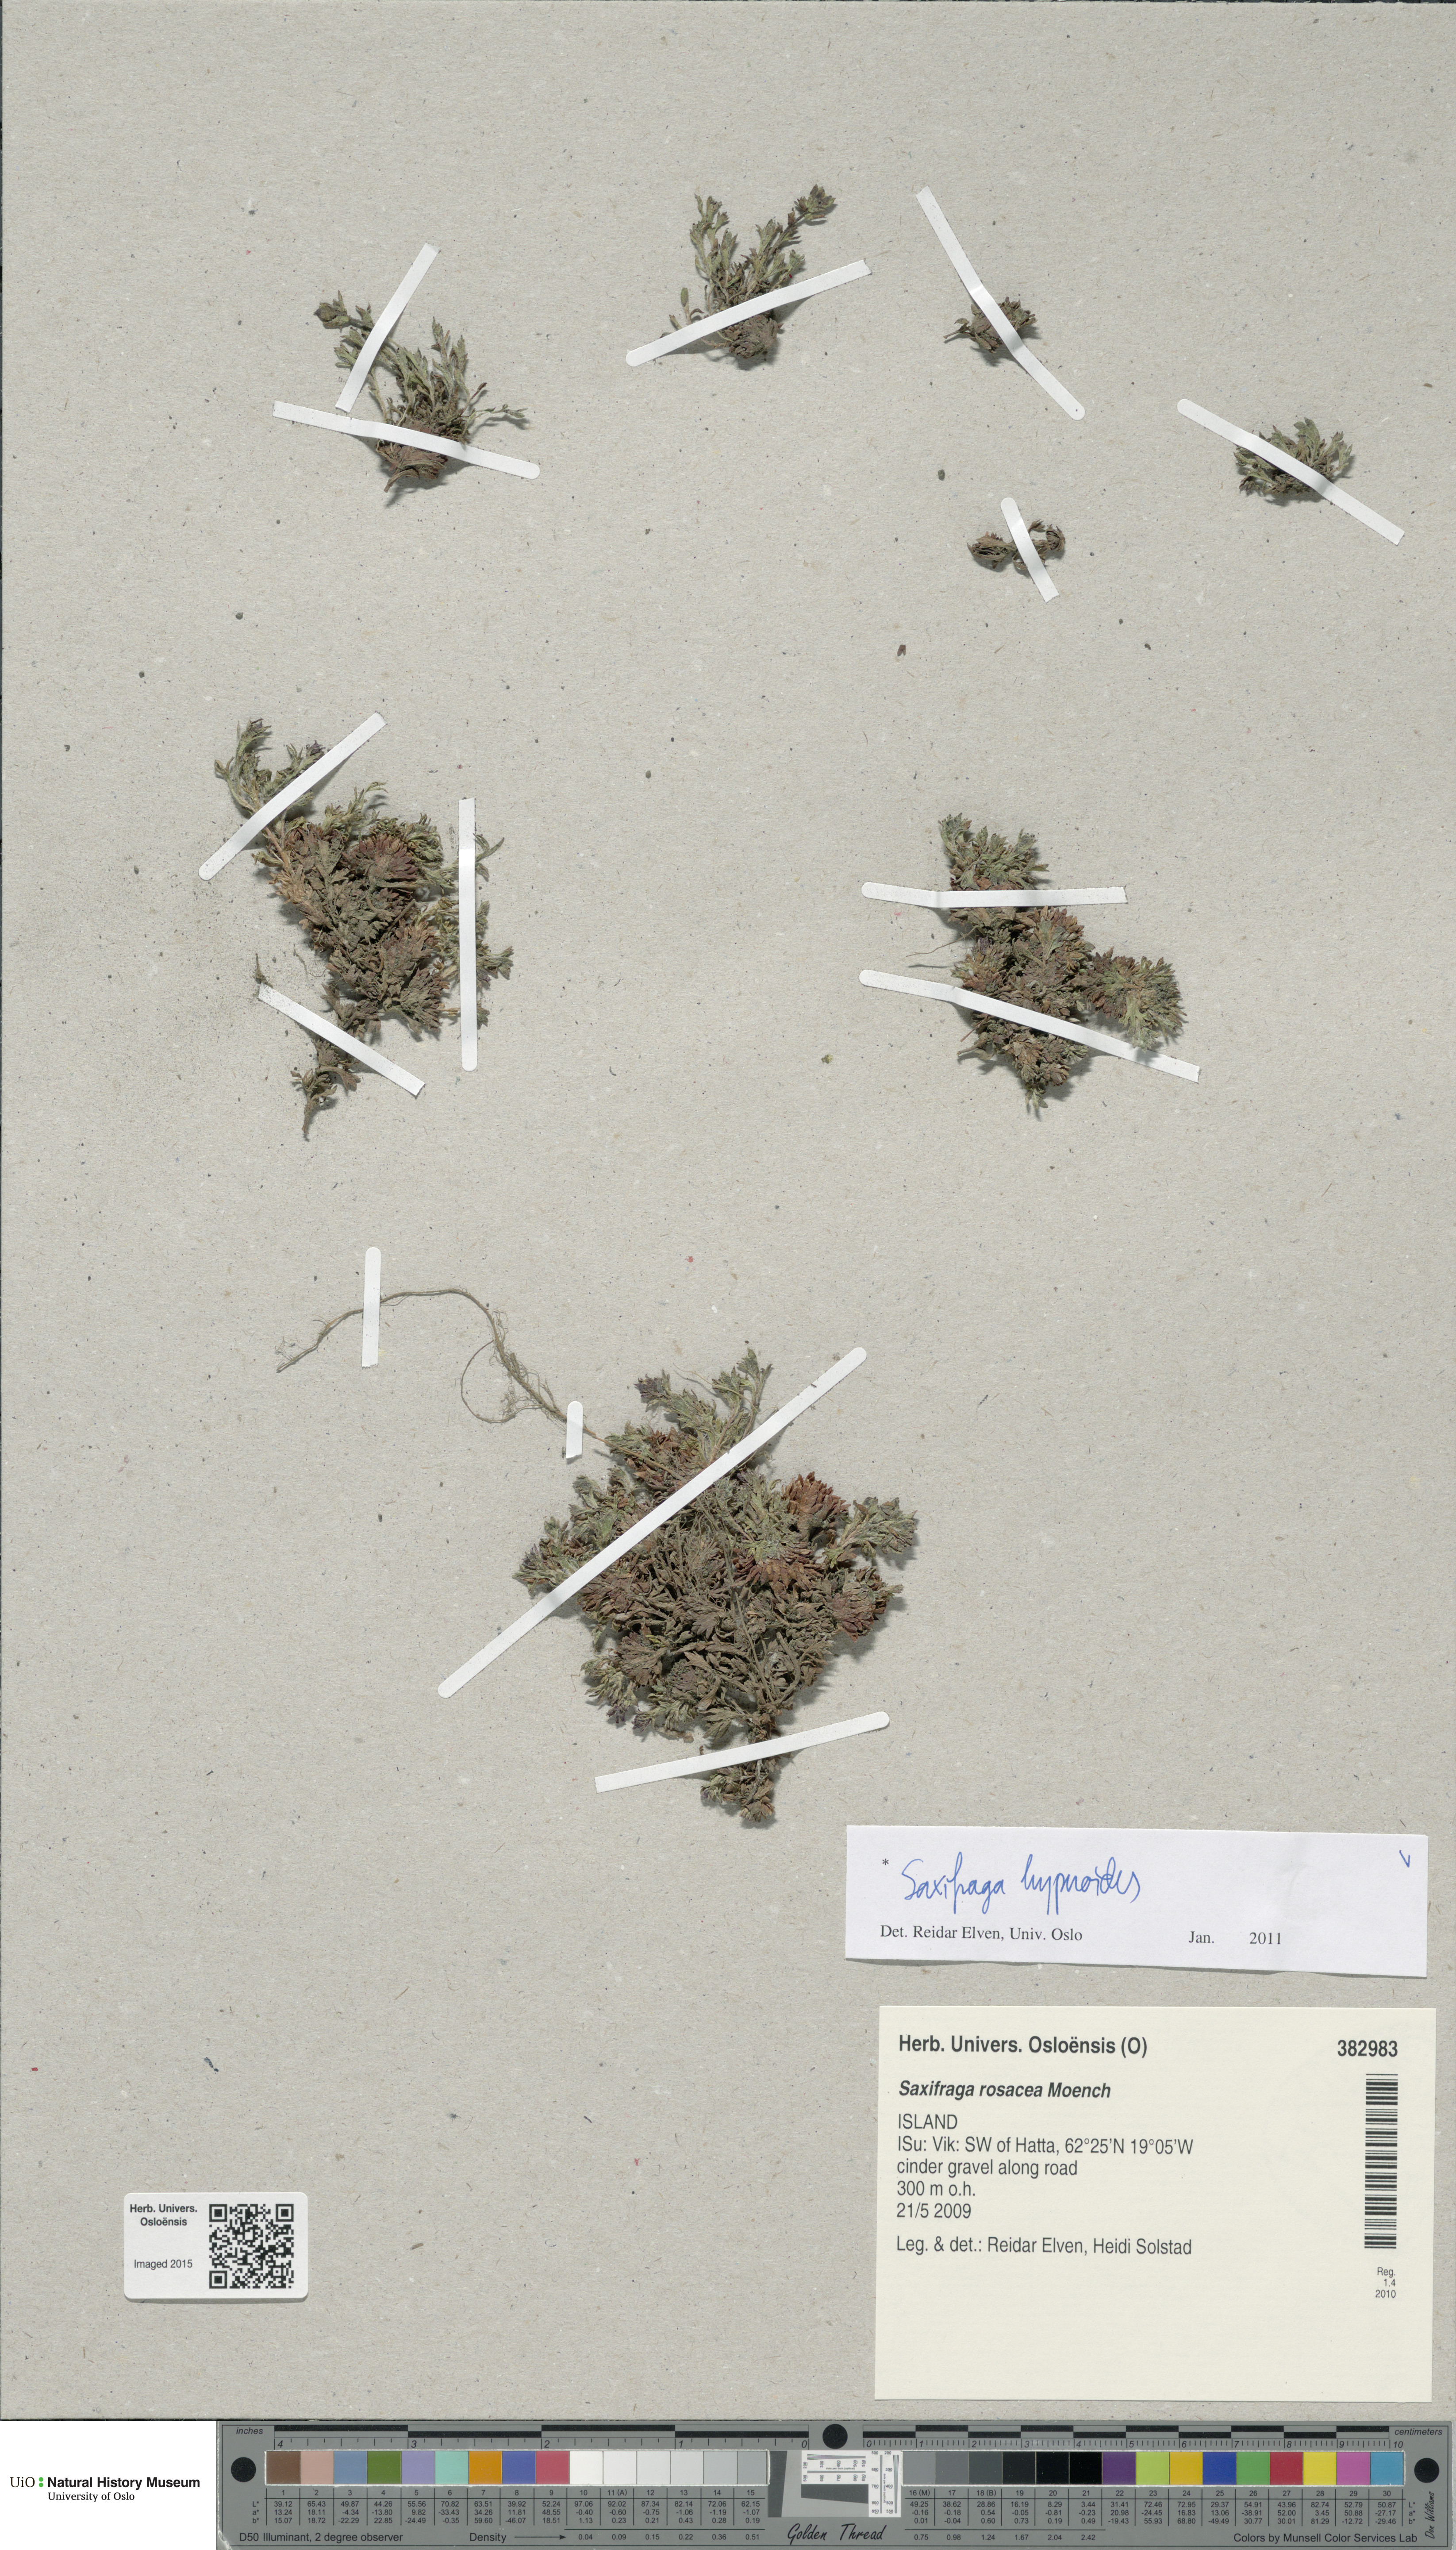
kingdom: Plantae
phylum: Tracheophyta
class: Magnoliopsida
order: Saxifragales
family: Saxifragaceae
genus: Saxifraga
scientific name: Saxifraga hypnoides
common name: Mossy saxifrage
